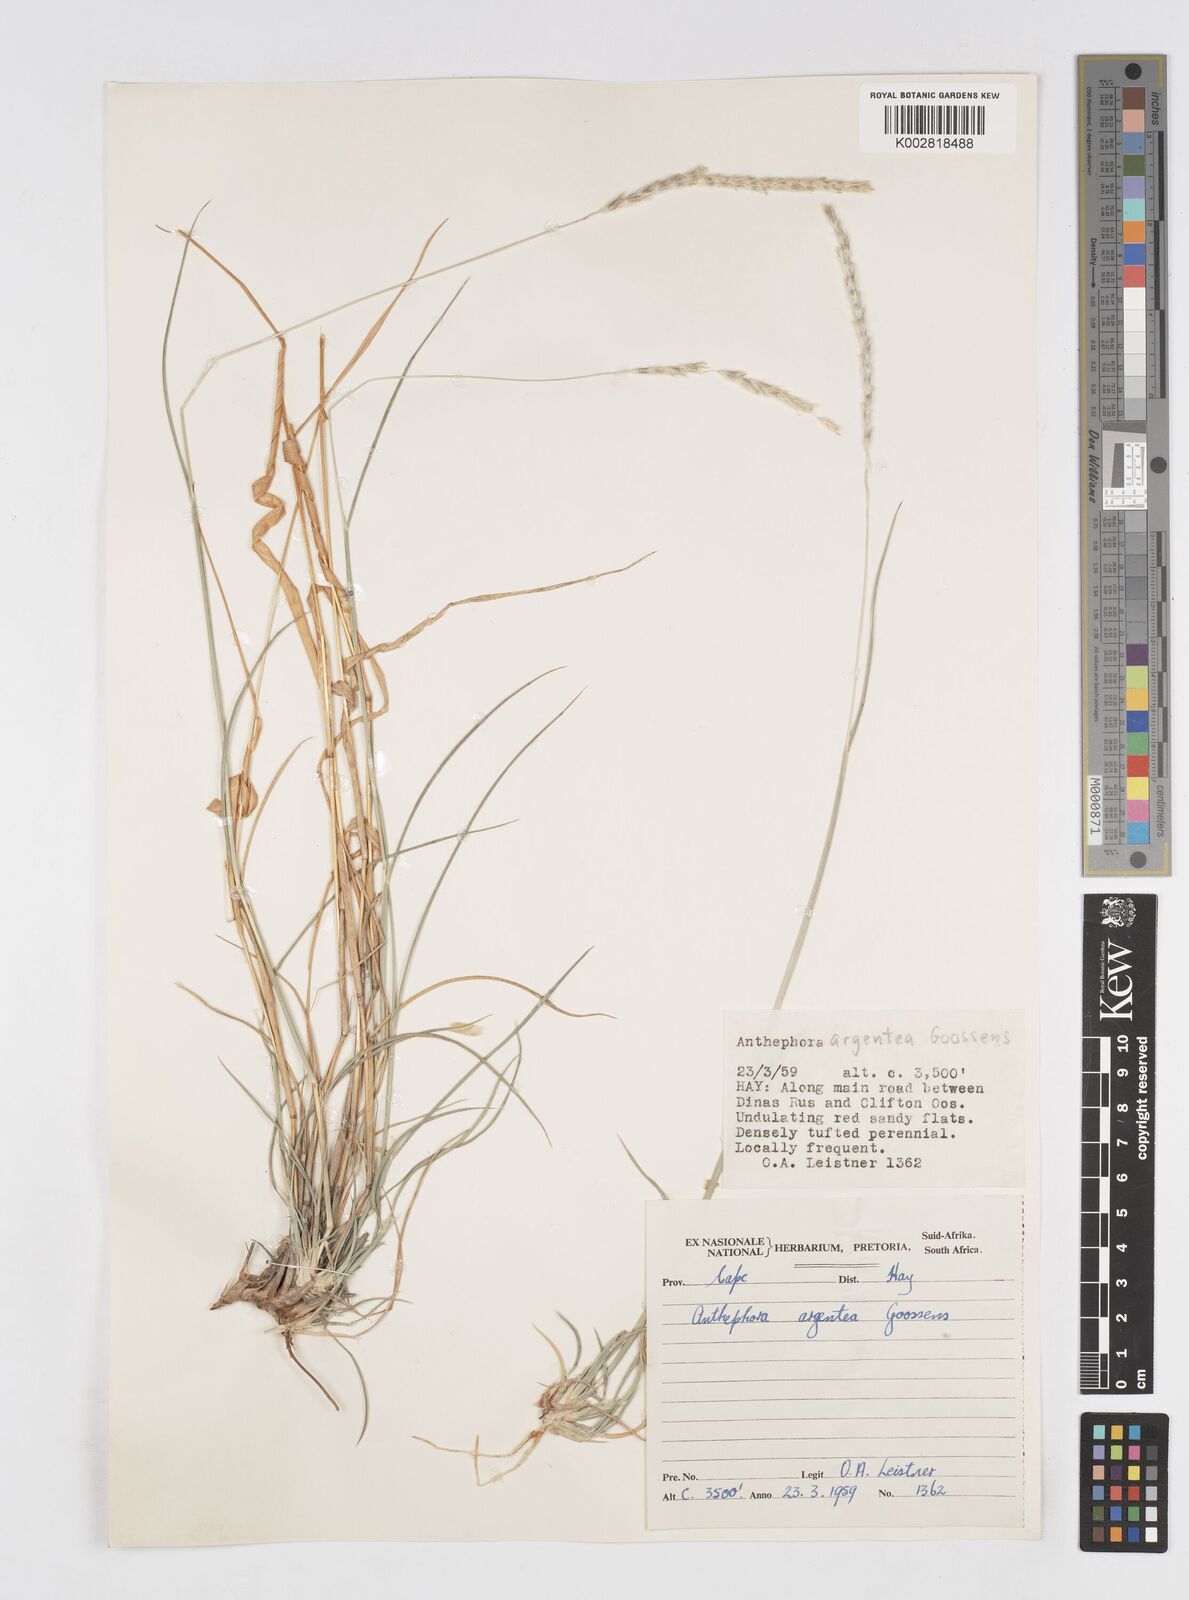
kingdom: Plantae
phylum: Tracheophyta
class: Liliopsida
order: Poales
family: Poaceae
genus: Anthephora
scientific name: Anthephora argentea
